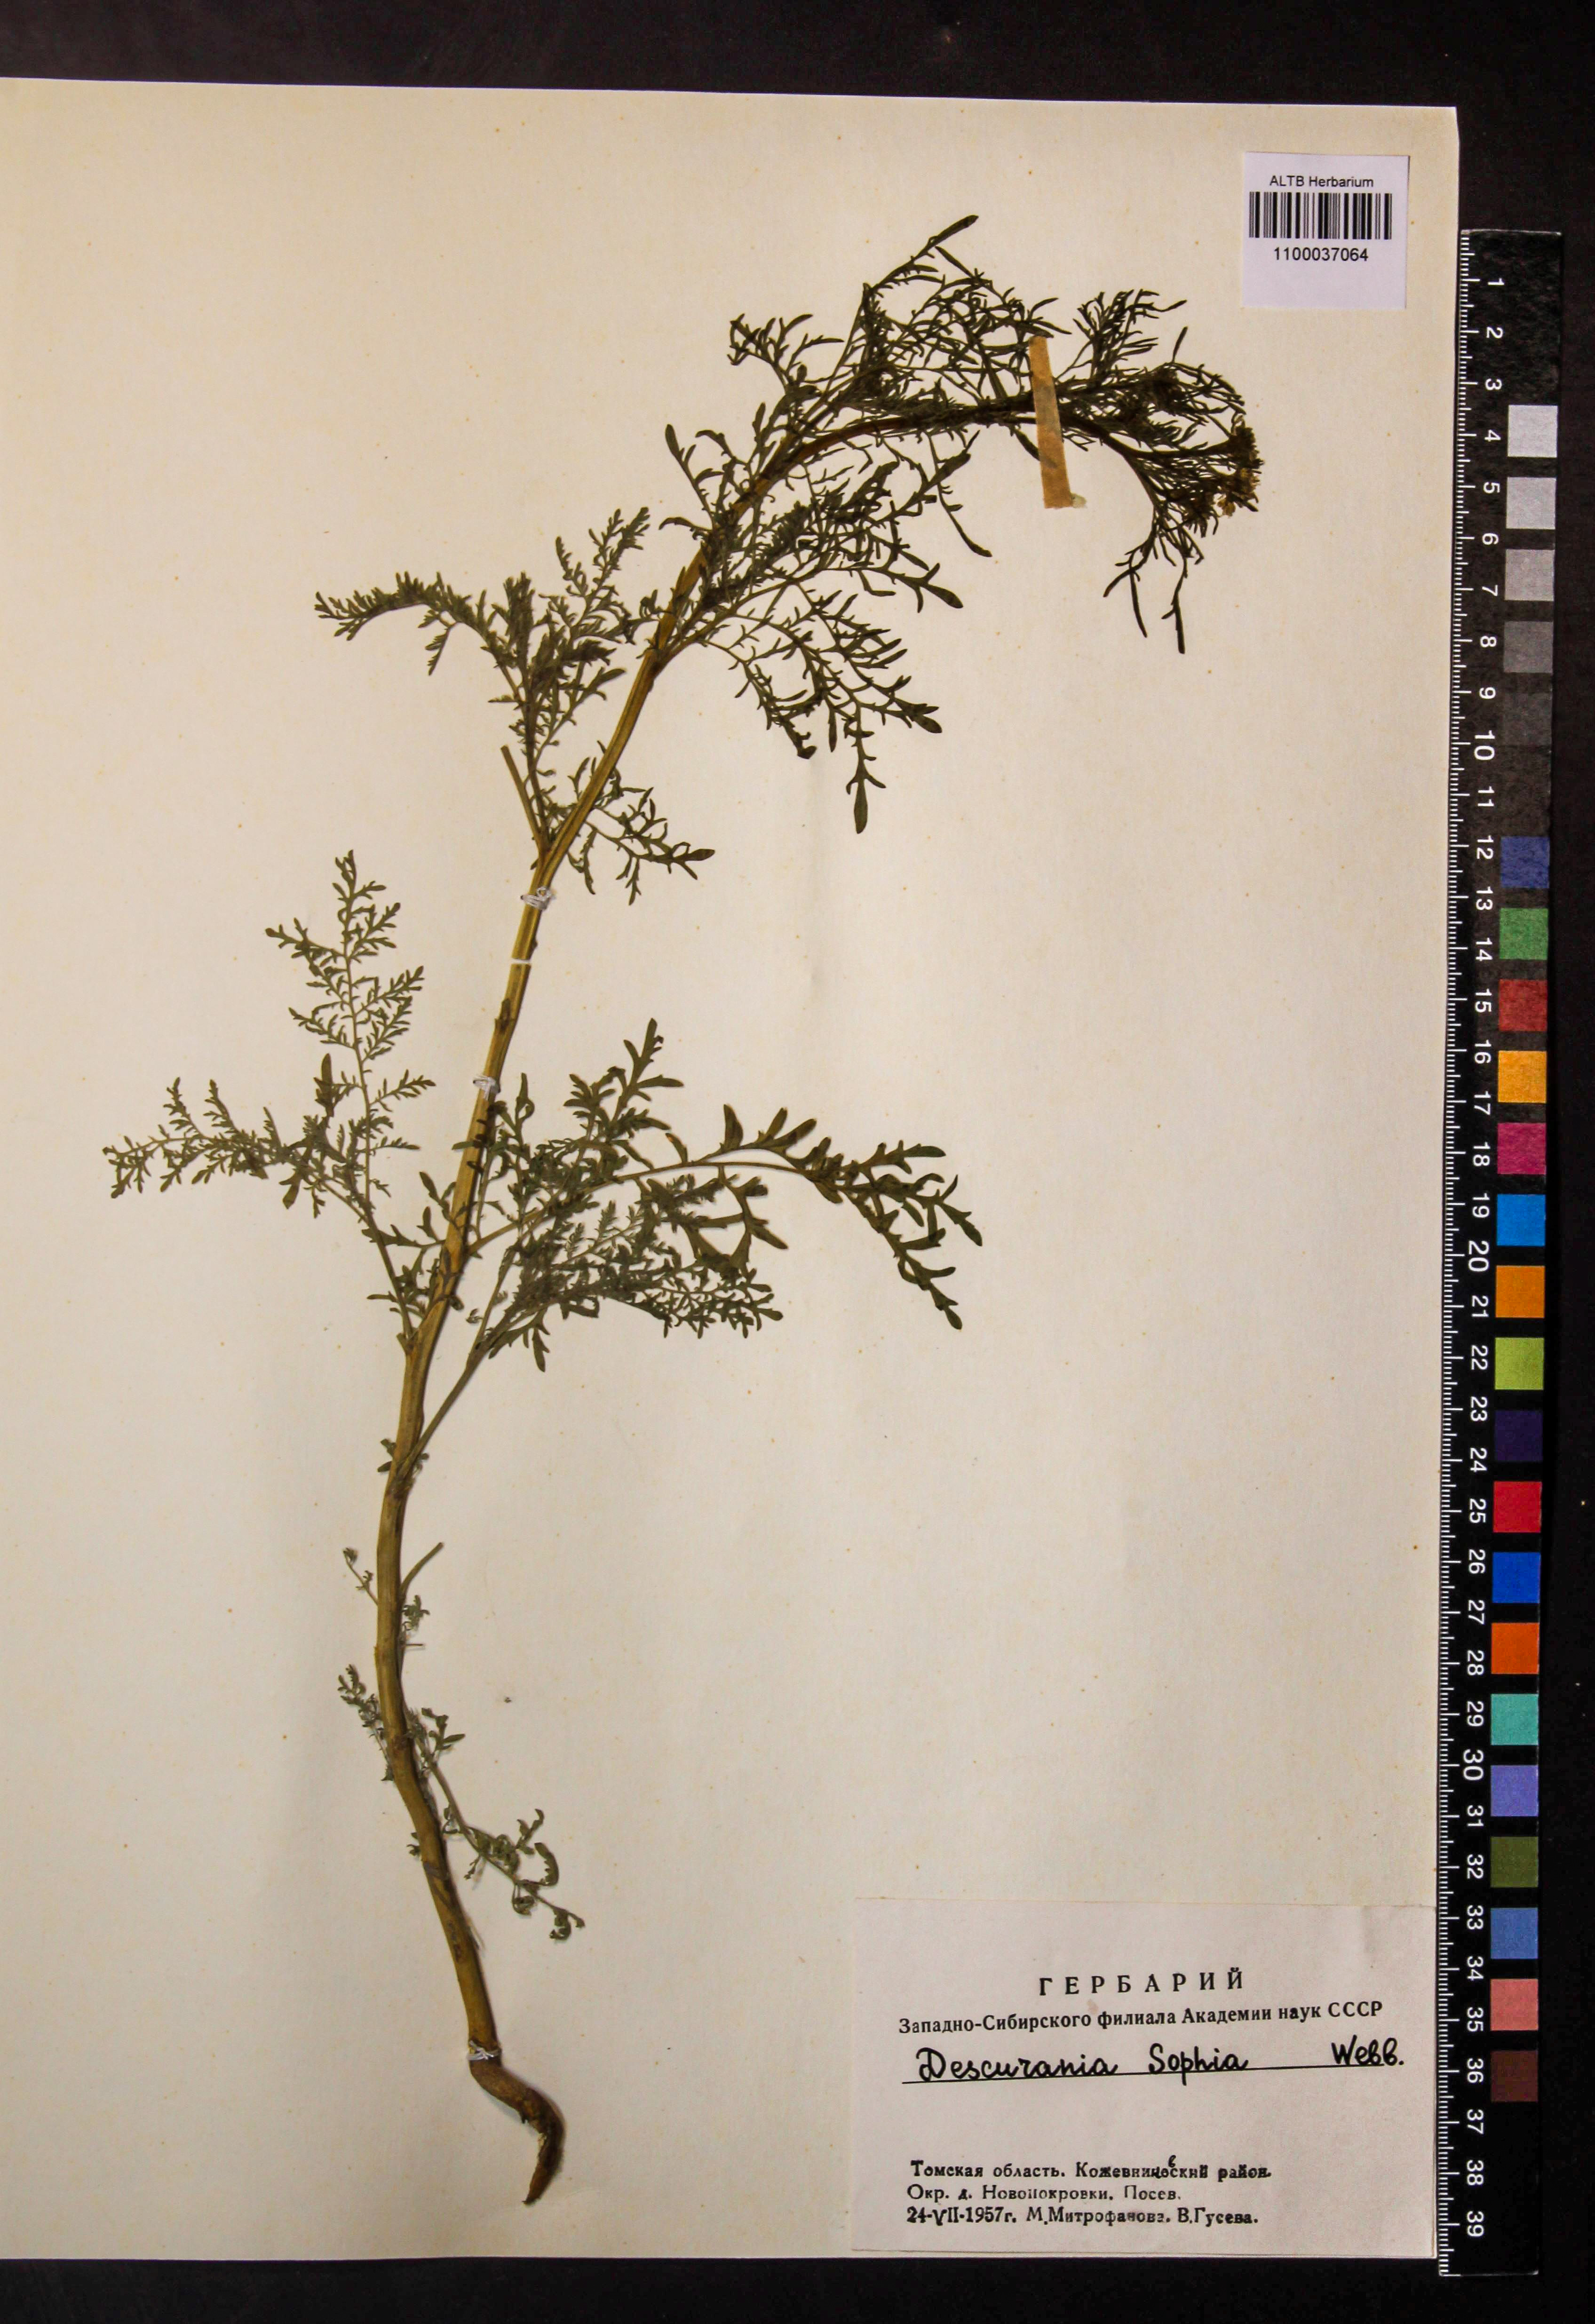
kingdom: Plantae
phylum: Tracheophyta
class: Magnoliopsida
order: Brassicales
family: Brassicaceae
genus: Descurainia
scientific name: Descurainia sophia
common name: Flixweed
